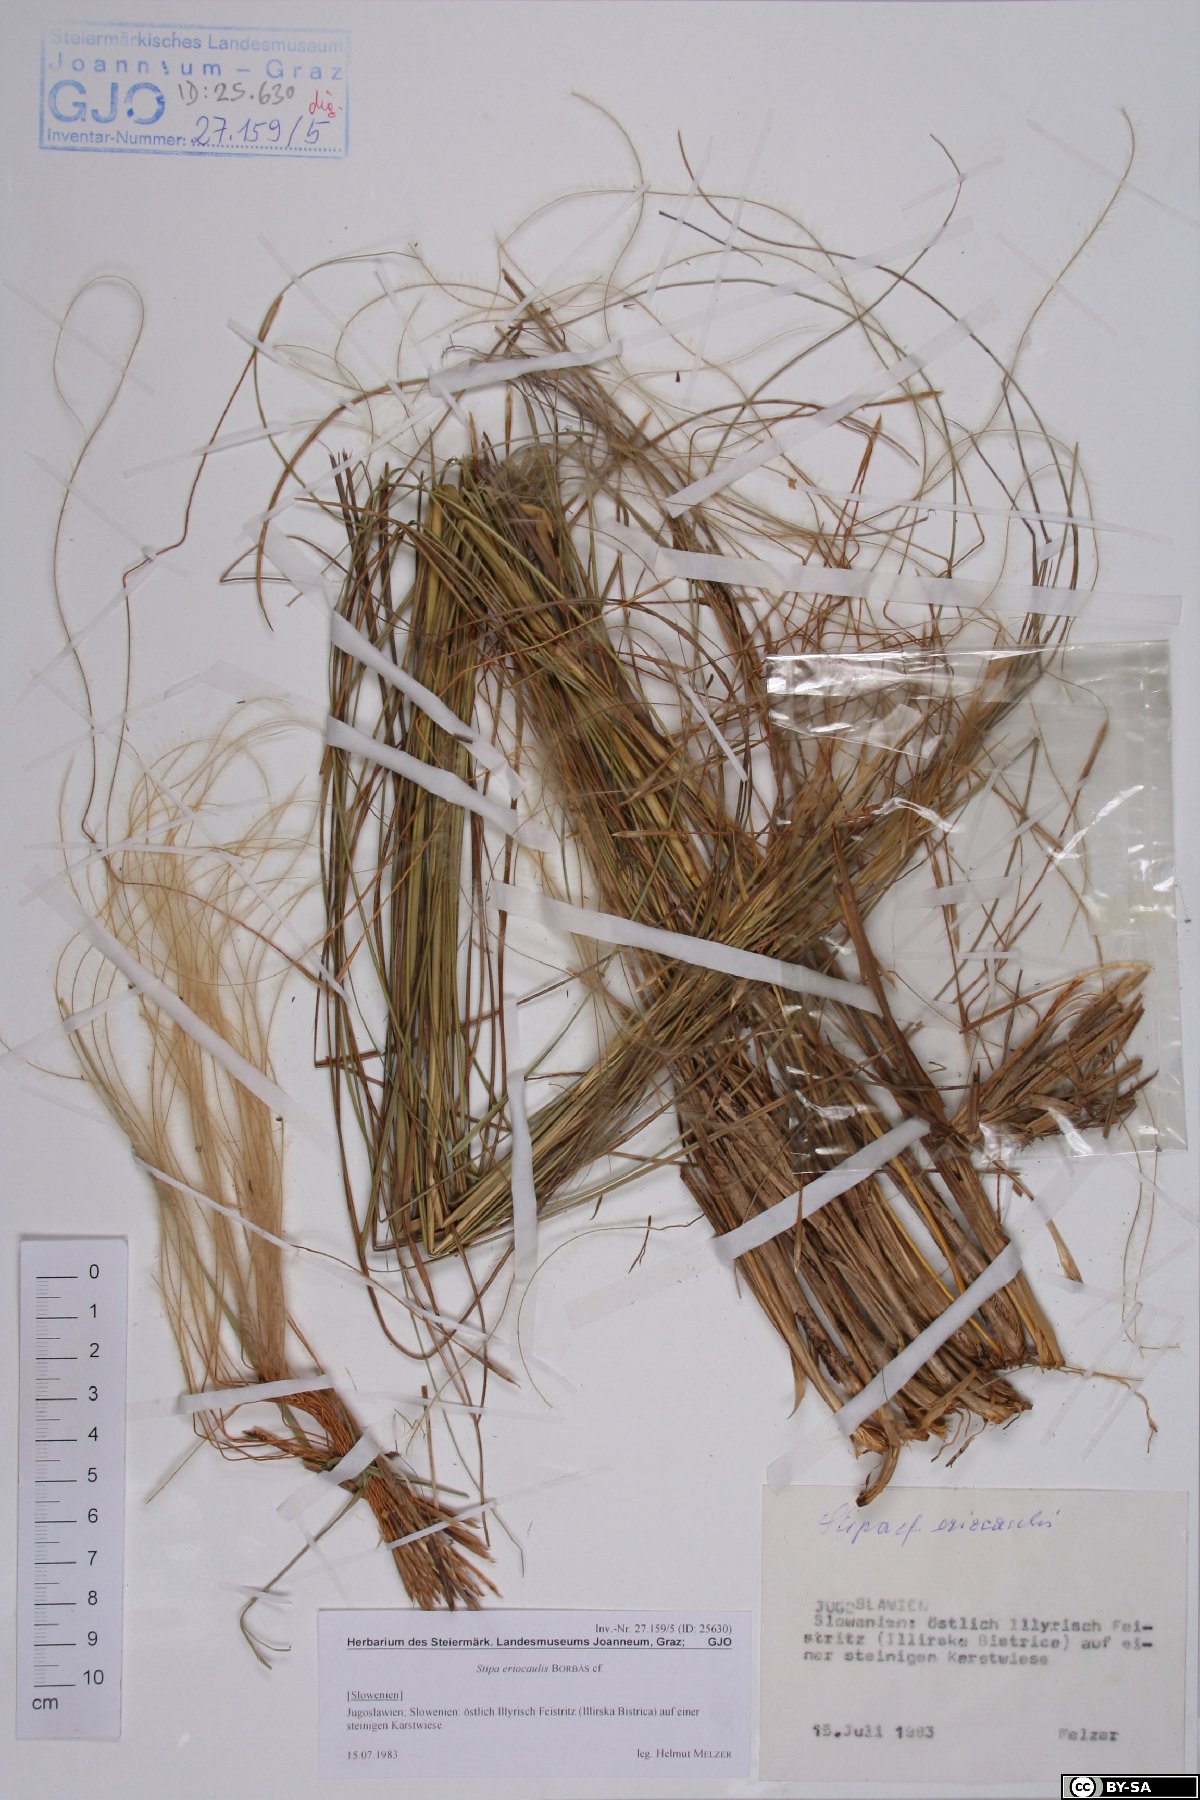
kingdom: Plantae
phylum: Tracheophyta
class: Liliopsida
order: Poales
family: Poaceae
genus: Stipa
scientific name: Stipa pennata
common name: European feather grass
